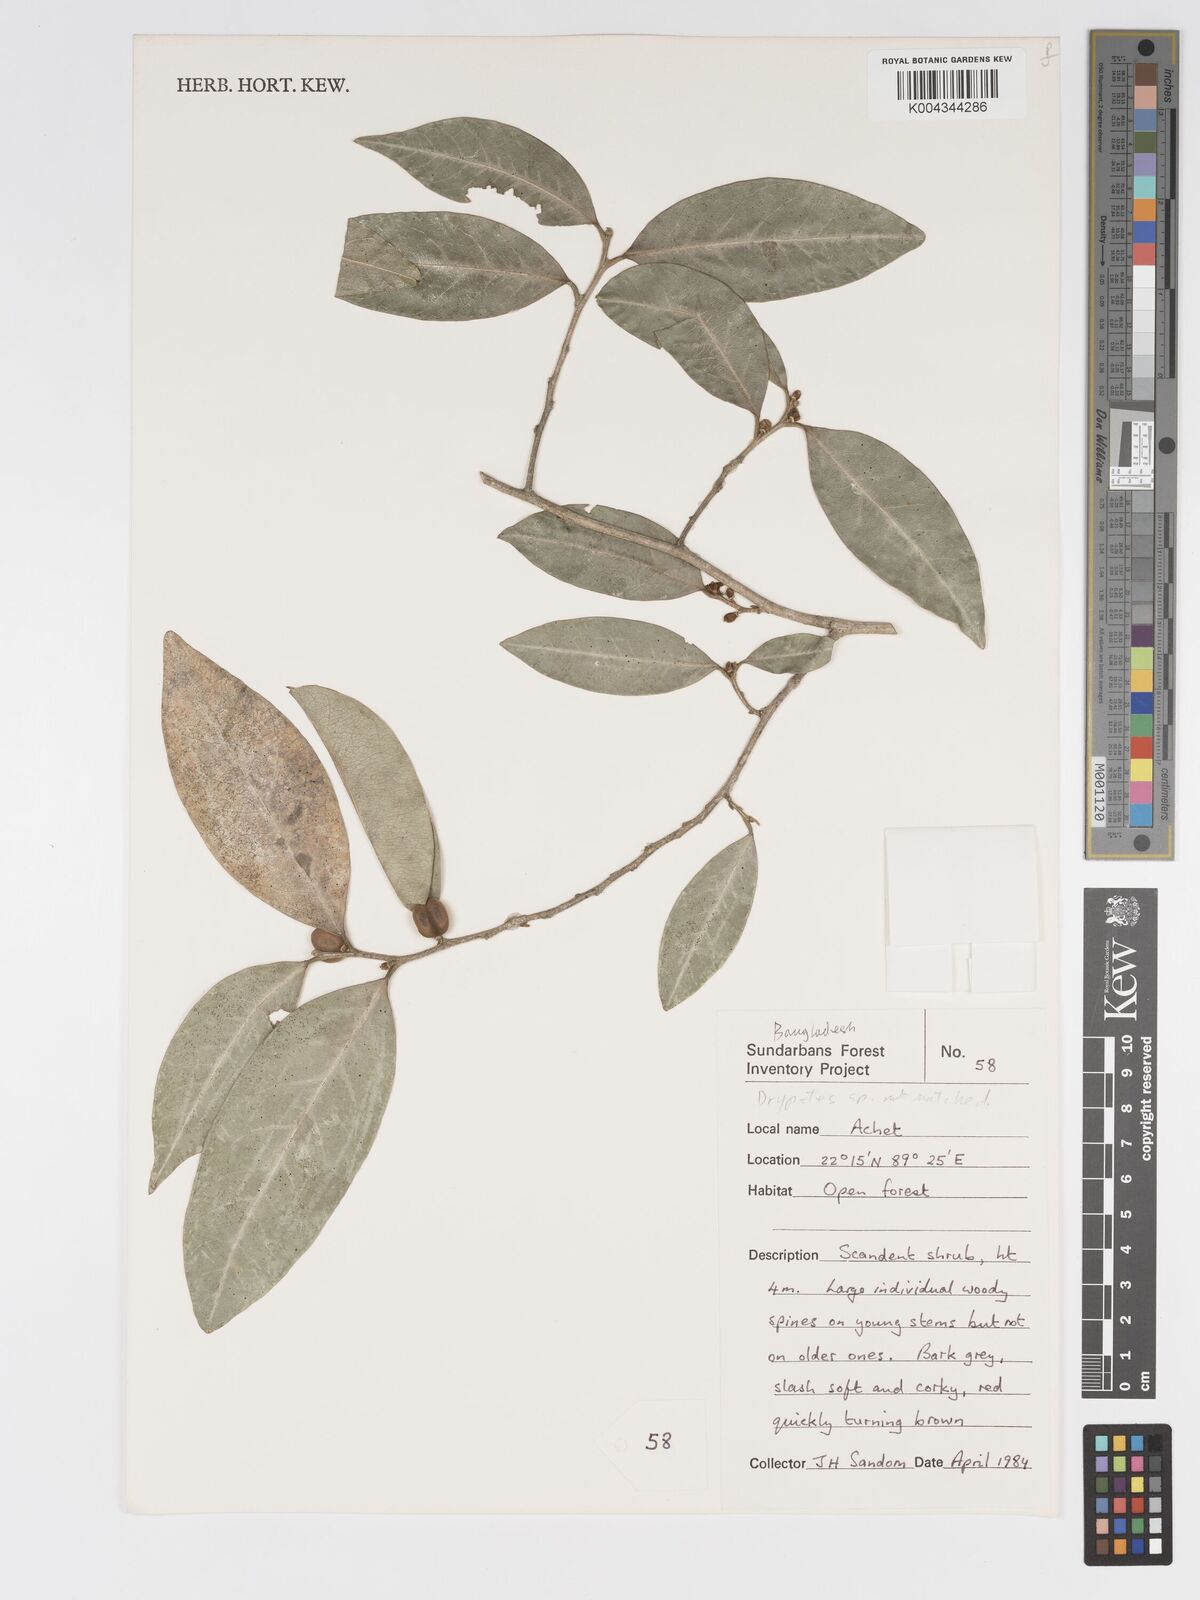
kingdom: Plantae
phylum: Tracheophyta
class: Magnoliopsida
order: Malpighiales
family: Putranjivaceae
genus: Drypetes
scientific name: Drypetes
